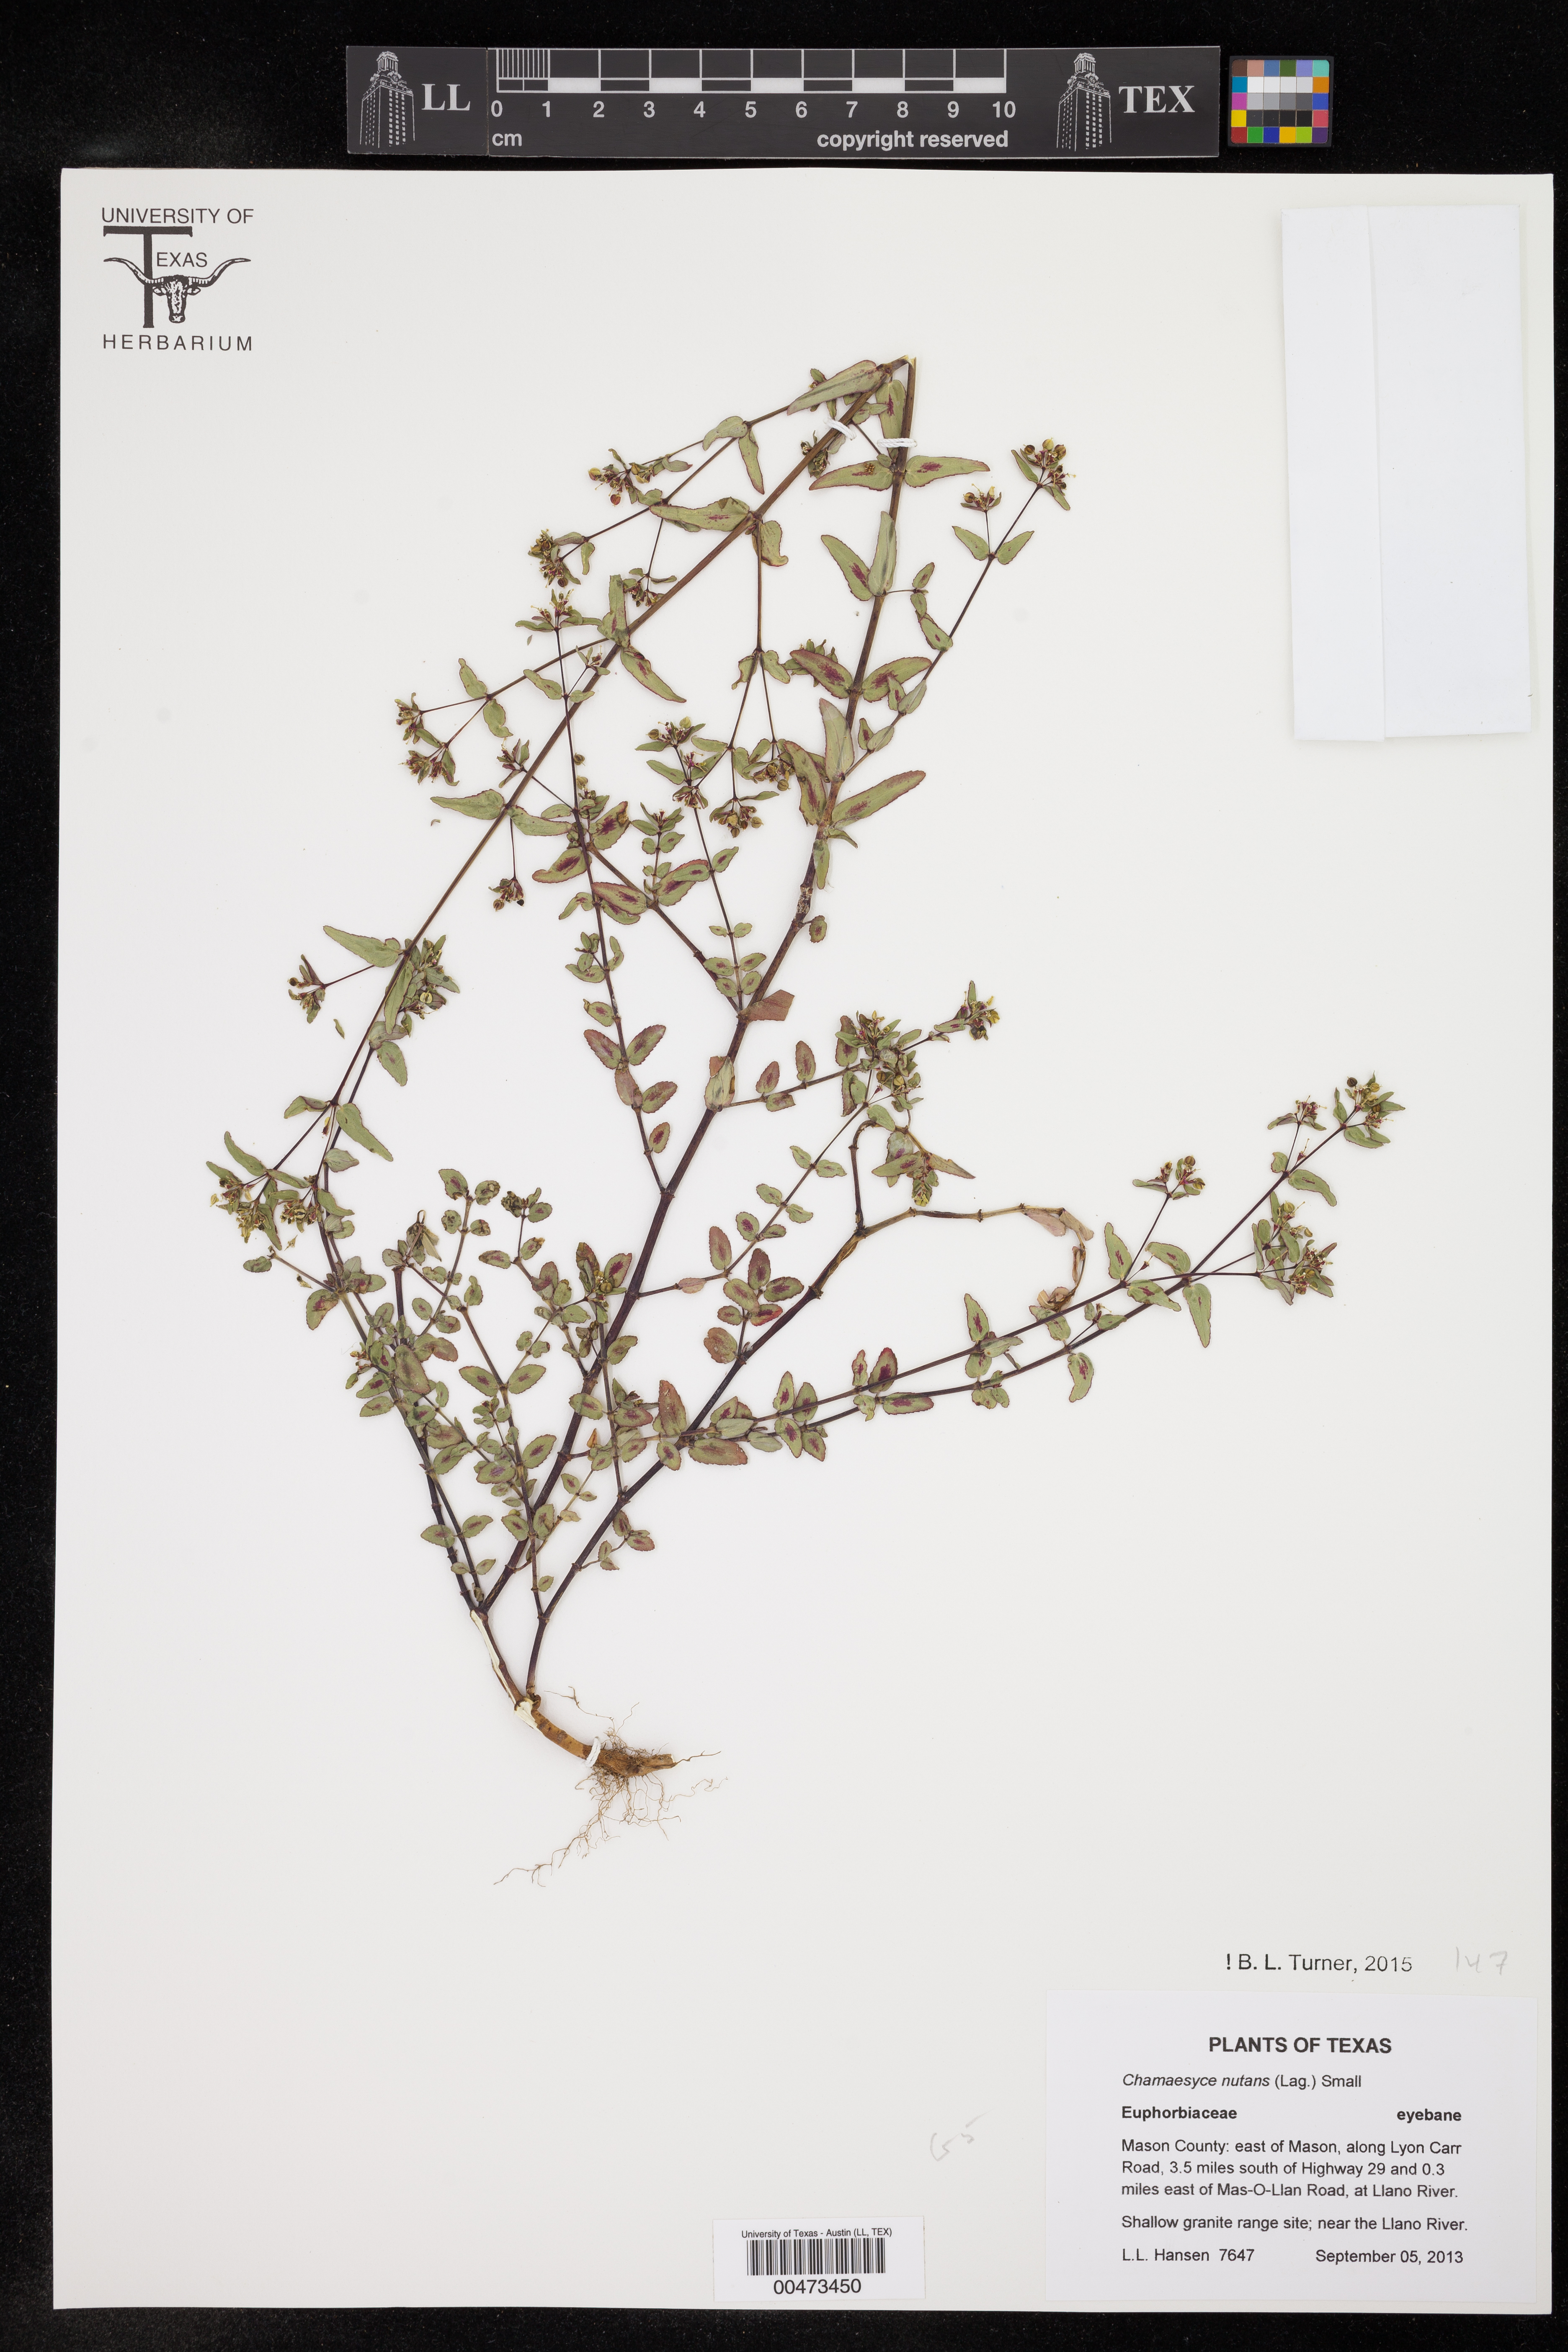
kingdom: Plantae
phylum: Tracheophyta
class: Magnoliopsida
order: Malpighiales
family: Euphorbiaceae
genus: Euphorbia
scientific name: Euphorbia nutans
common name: Eyebane
